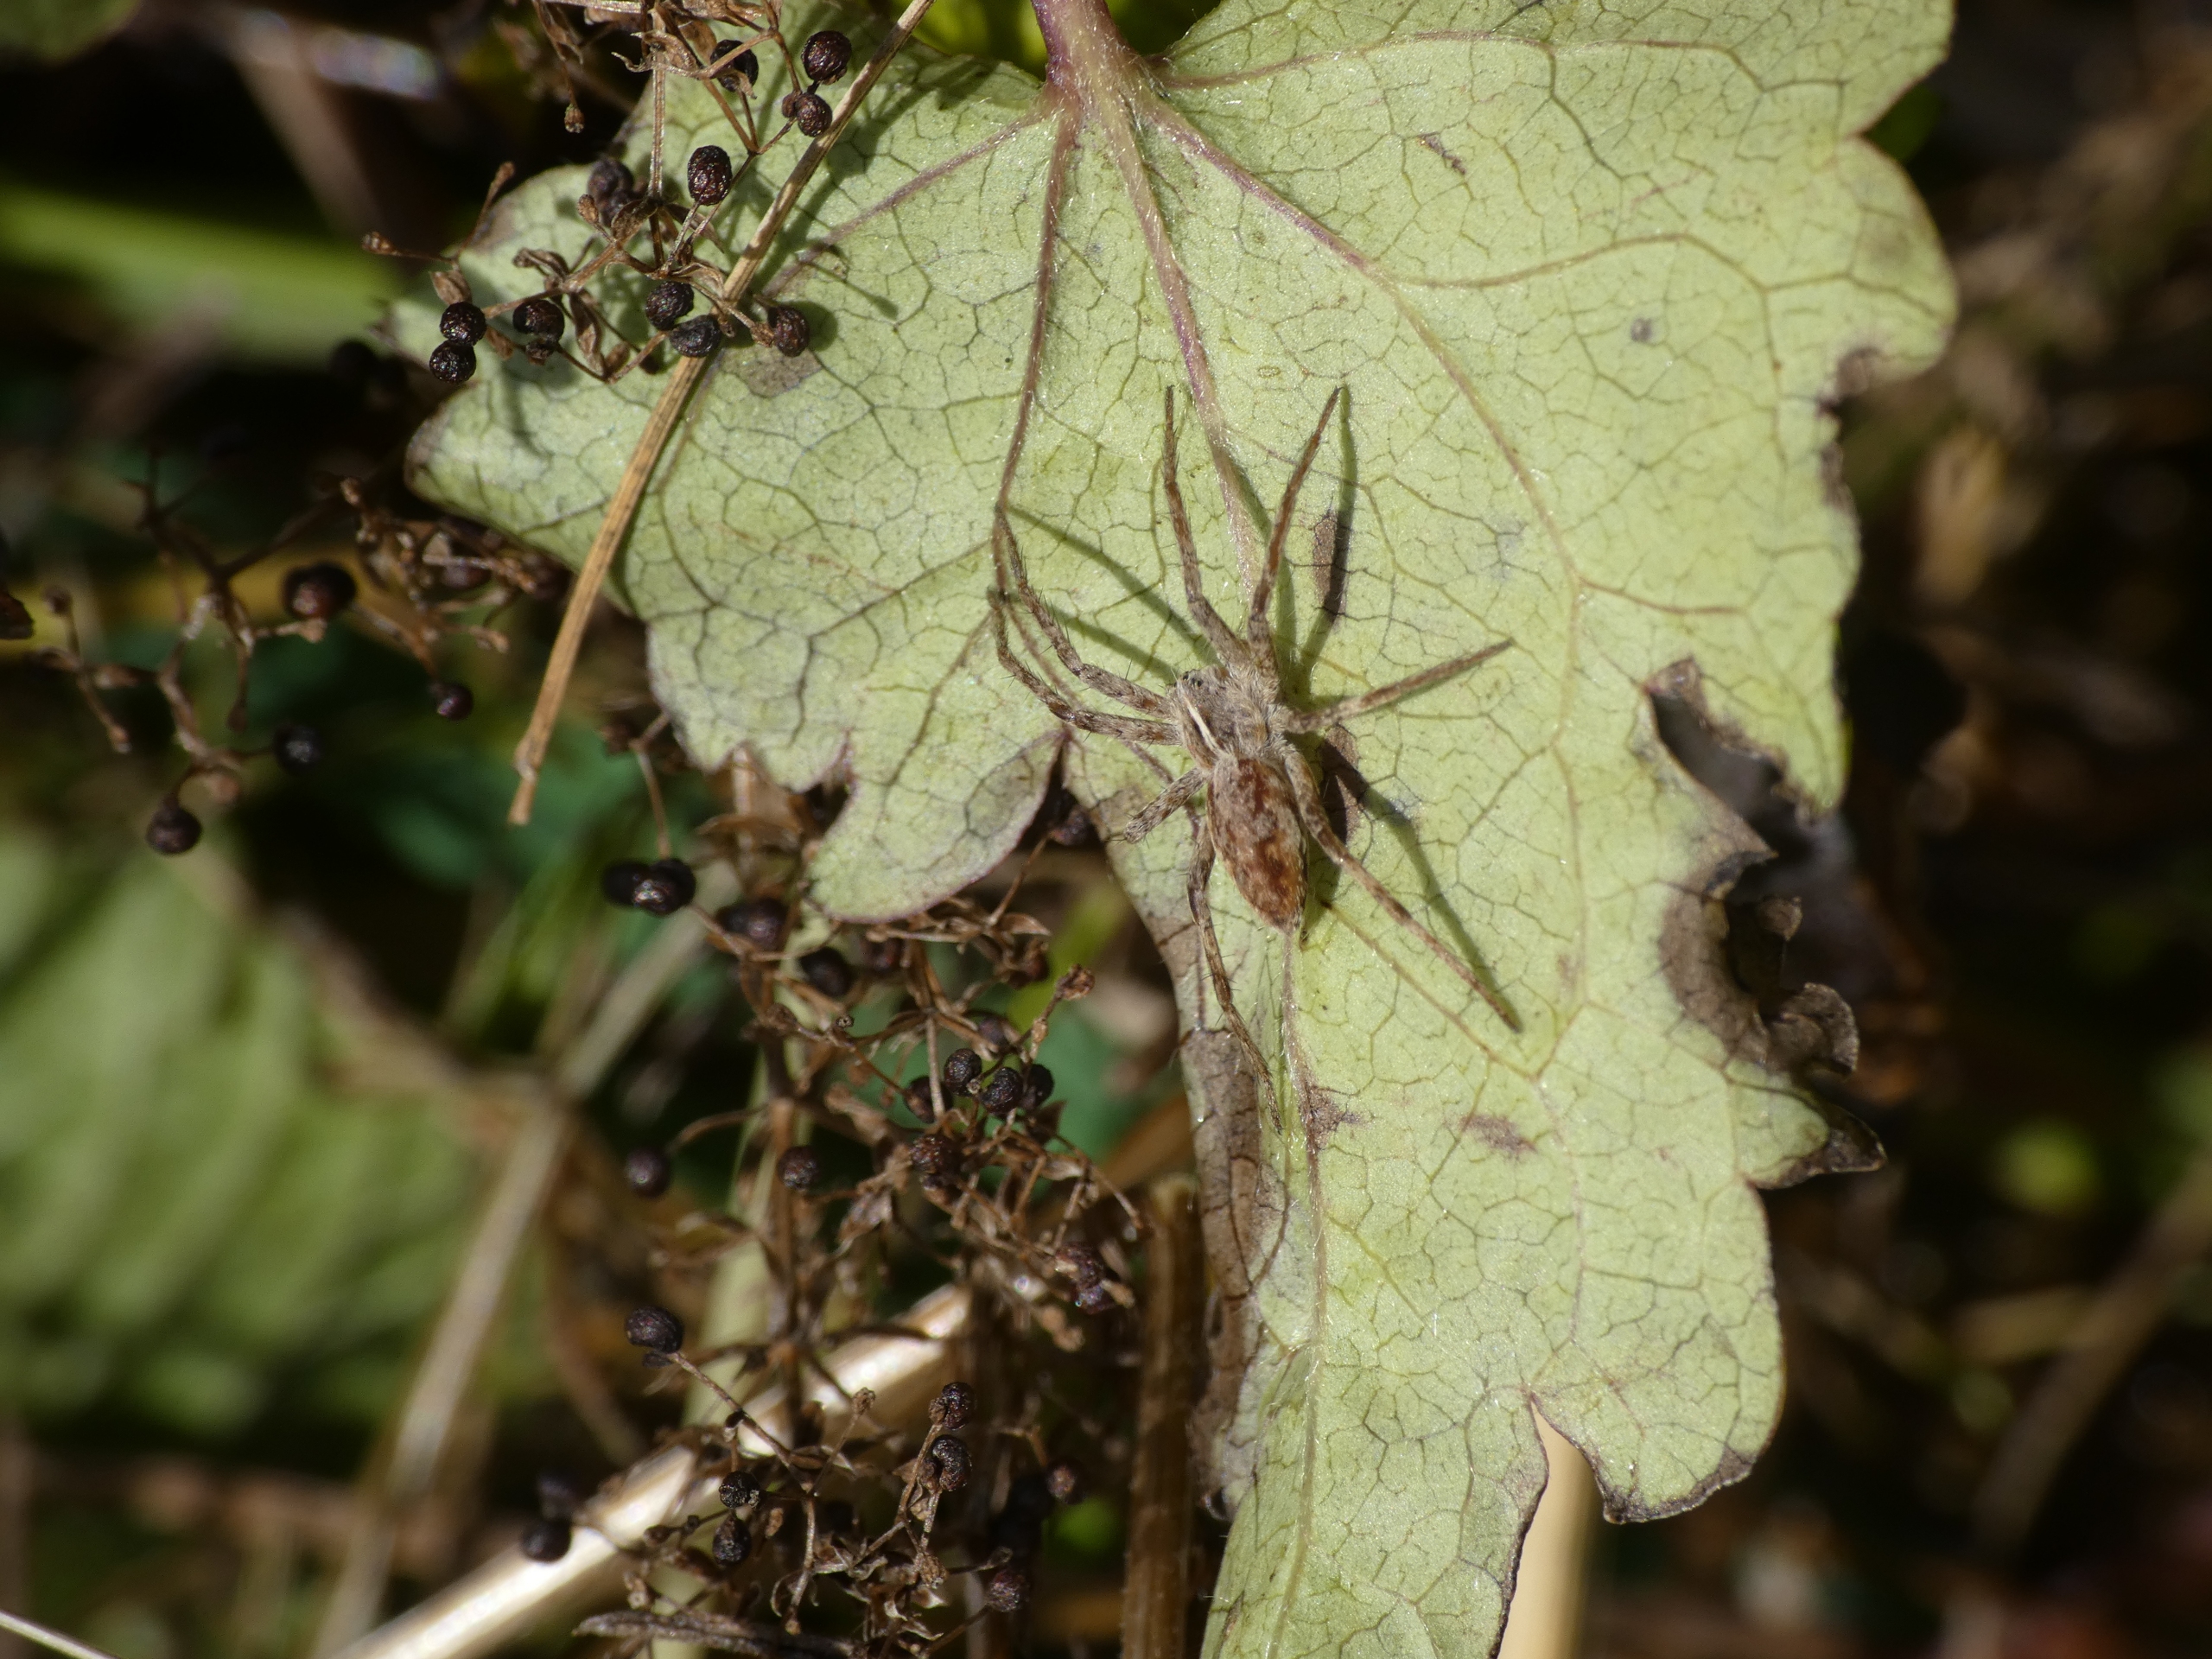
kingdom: Animalia
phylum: Arthropoda
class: Arachnida
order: Araneae
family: Pisauridae
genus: Pisaura
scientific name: Pisaura mirabilis
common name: Almindelig rovedderkop
